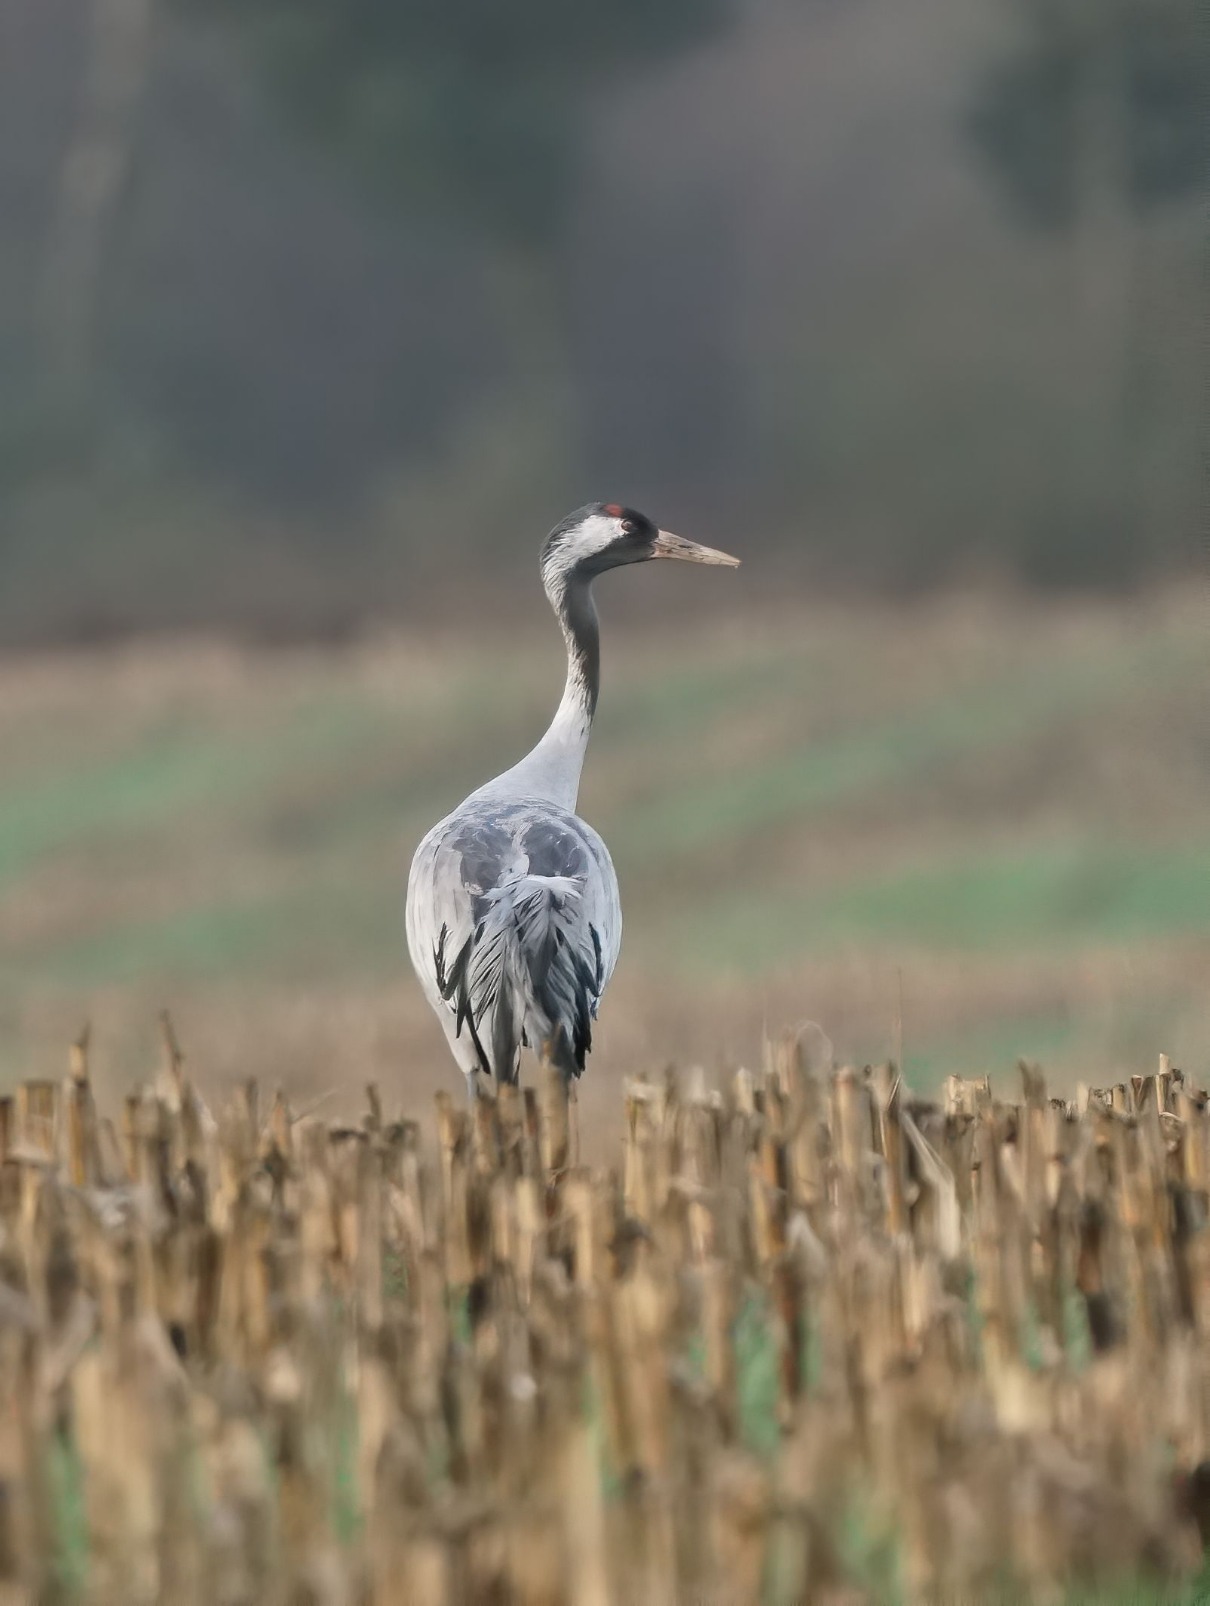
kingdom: Animalia
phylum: Chordata
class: Aves
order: Gruiformes
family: Gruidae
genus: Grus
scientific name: Grus grus
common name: Trane
